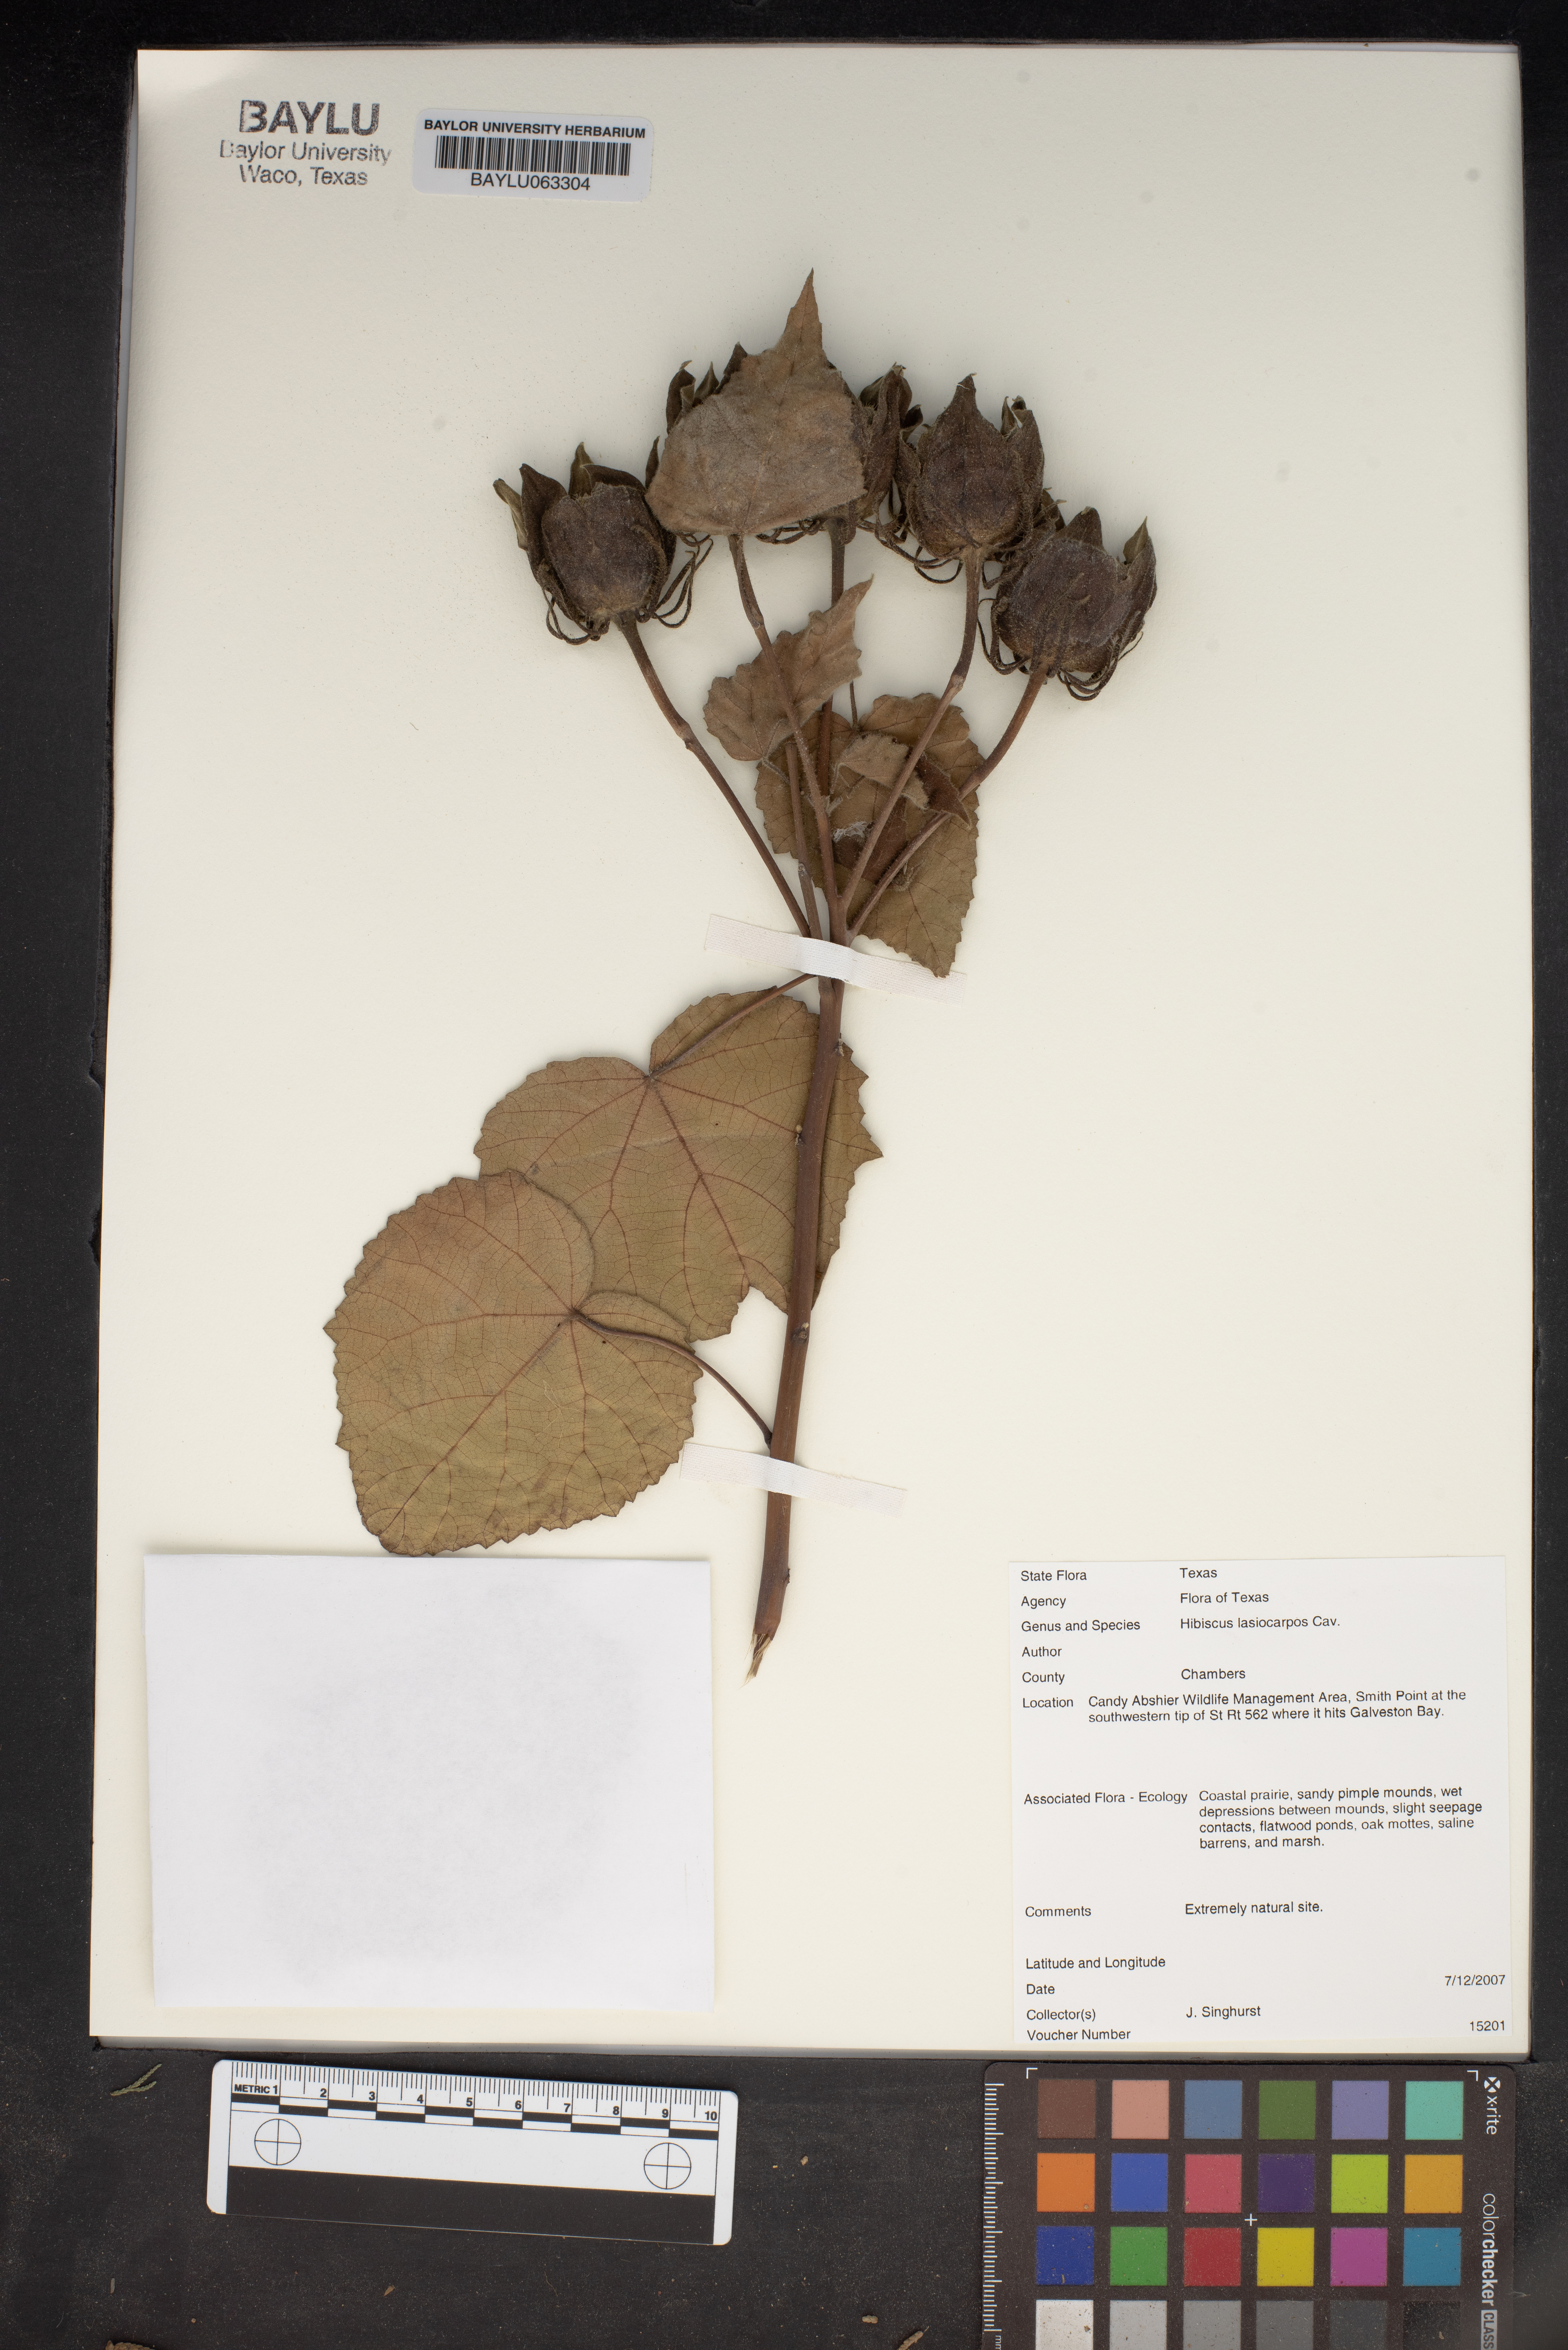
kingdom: Plantae
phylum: Tracheophyta
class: Magnoliopsida
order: Malvales
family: Malvaceae
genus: Hibiscus
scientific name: Hibiscus moscheutos
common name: Common rose-mallow
